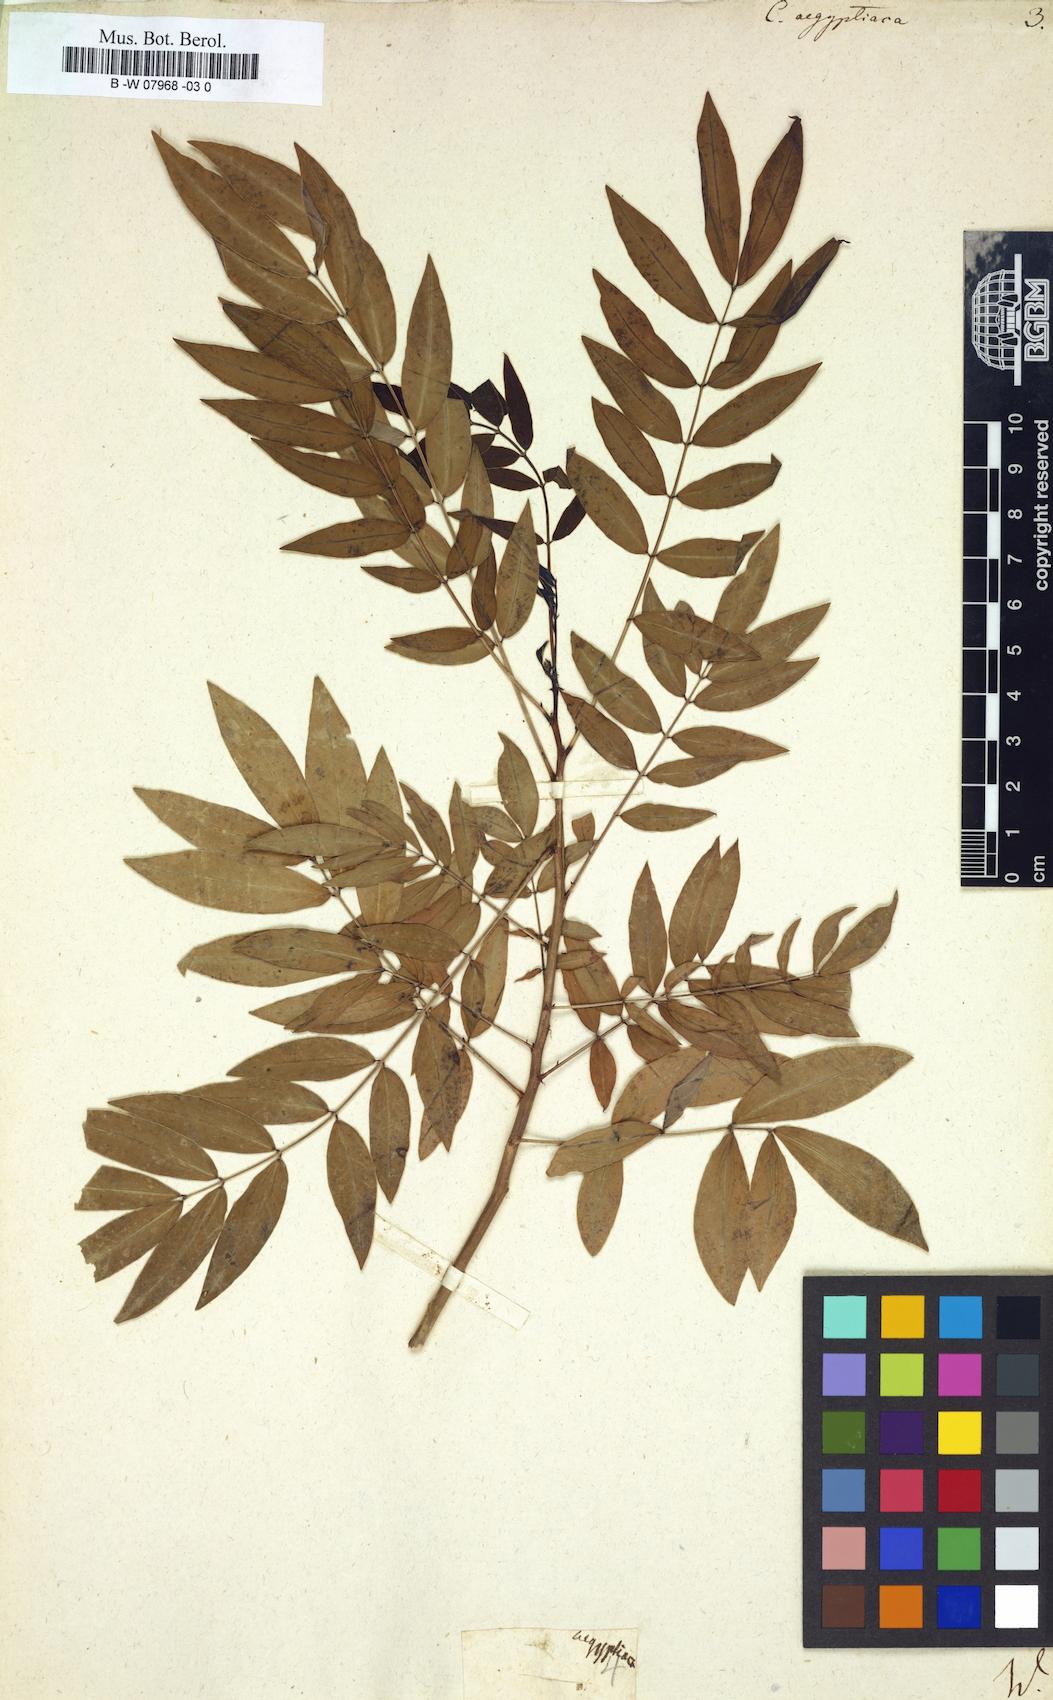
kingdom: Plantae
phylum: Tracheophyta
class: Magnoliopsida
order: Fabales
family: Fabaceae
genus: Senna
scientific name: Senna sophera
